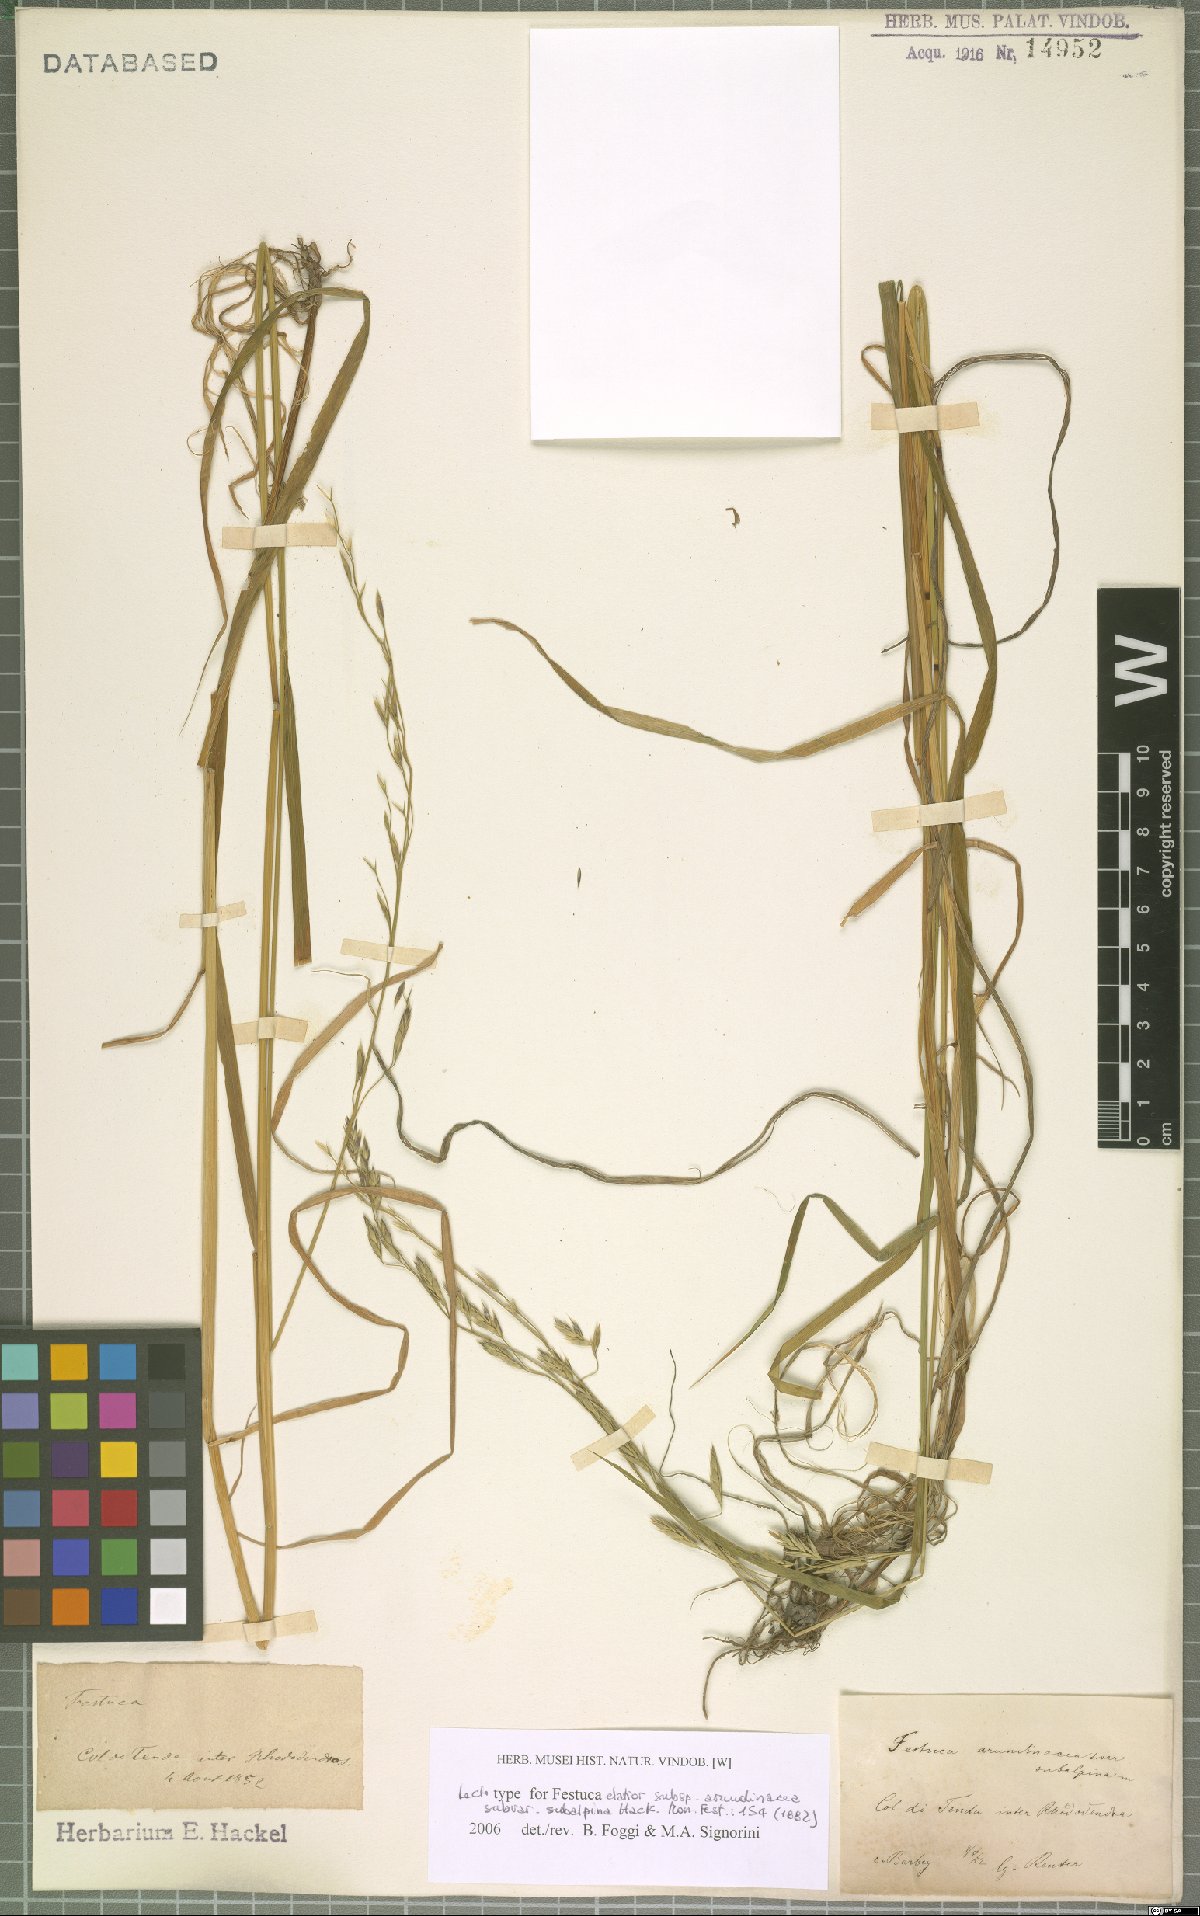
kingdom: Plantae
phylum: Tracheophyta
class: Liliopsida
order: Poales
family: Poaceae
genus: Lolium
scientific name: Lolium arundinaceum
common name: Reed fescue
